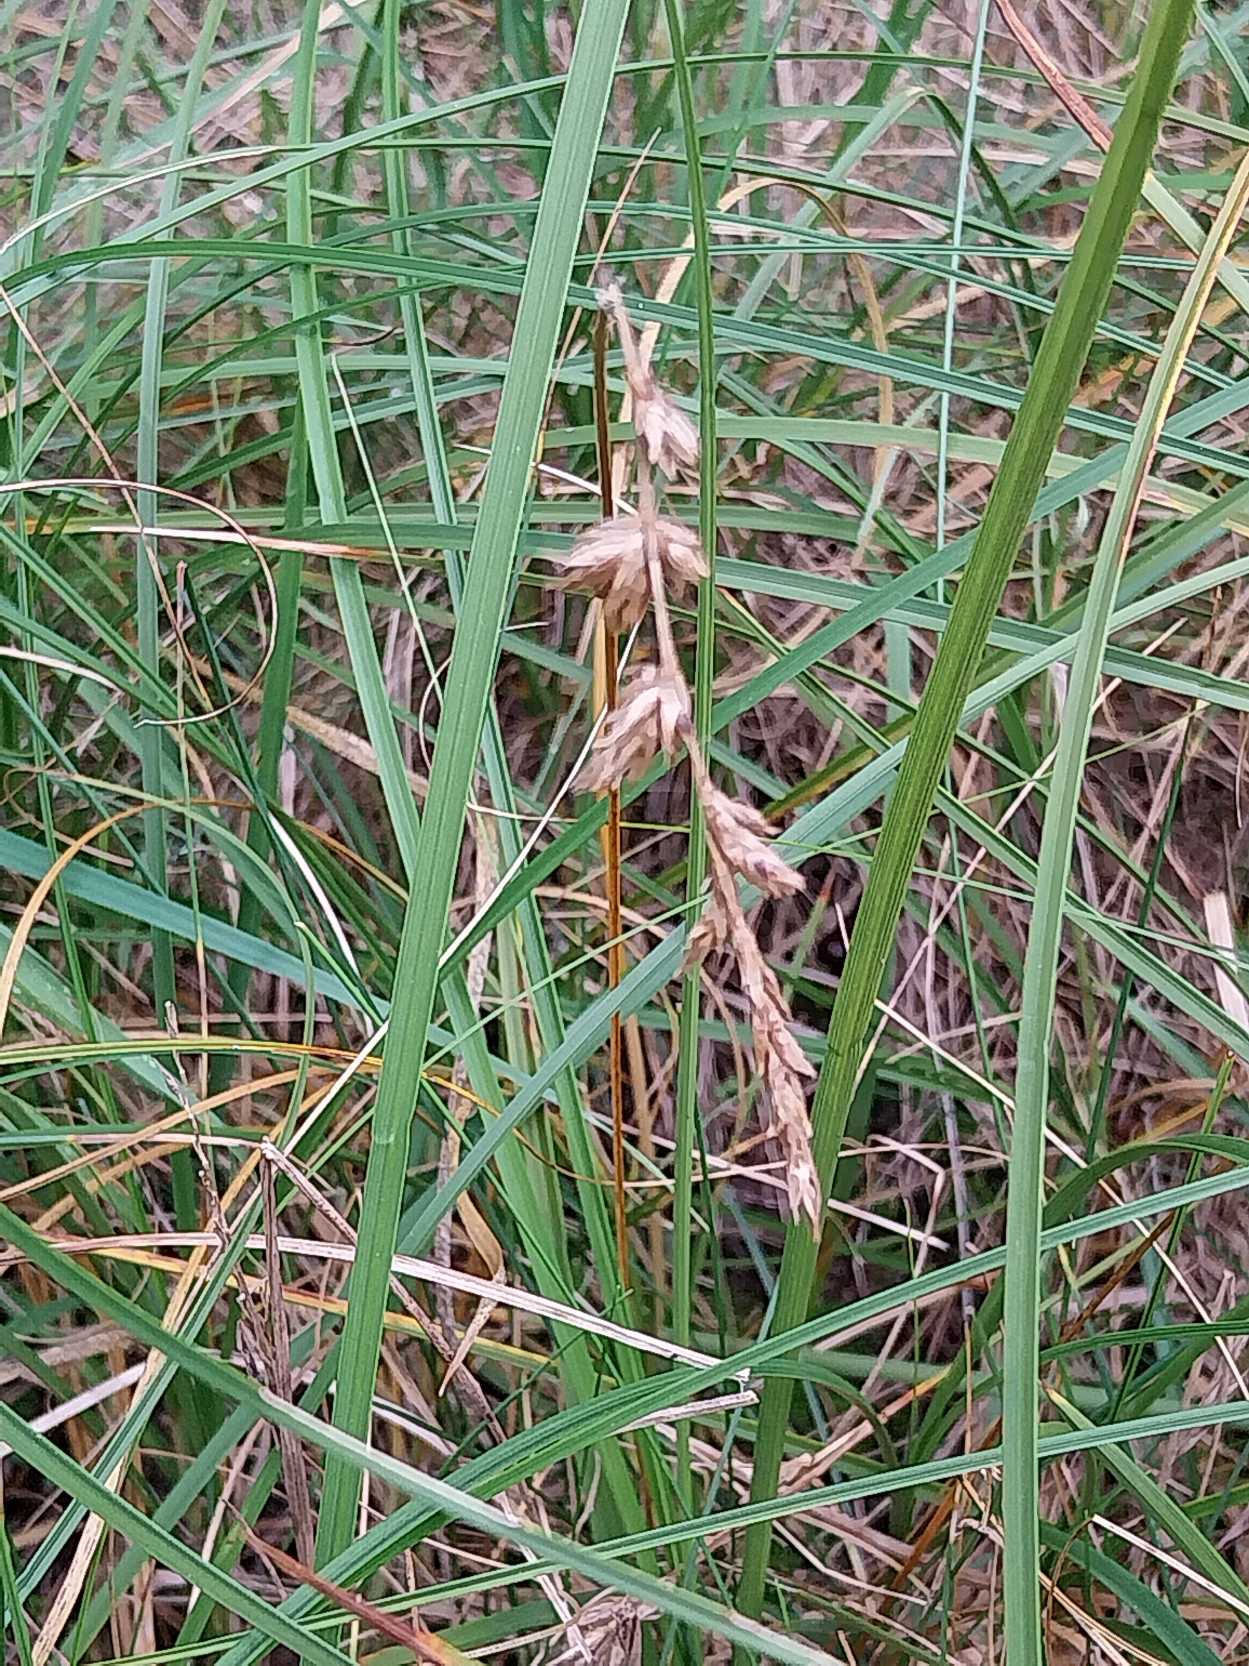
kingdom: Plantae
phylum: Tracheophyta
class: Liliopsida
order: Poales
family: Cyperaceae
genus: Carex
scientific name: Carex arenaria
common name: Sand-star
